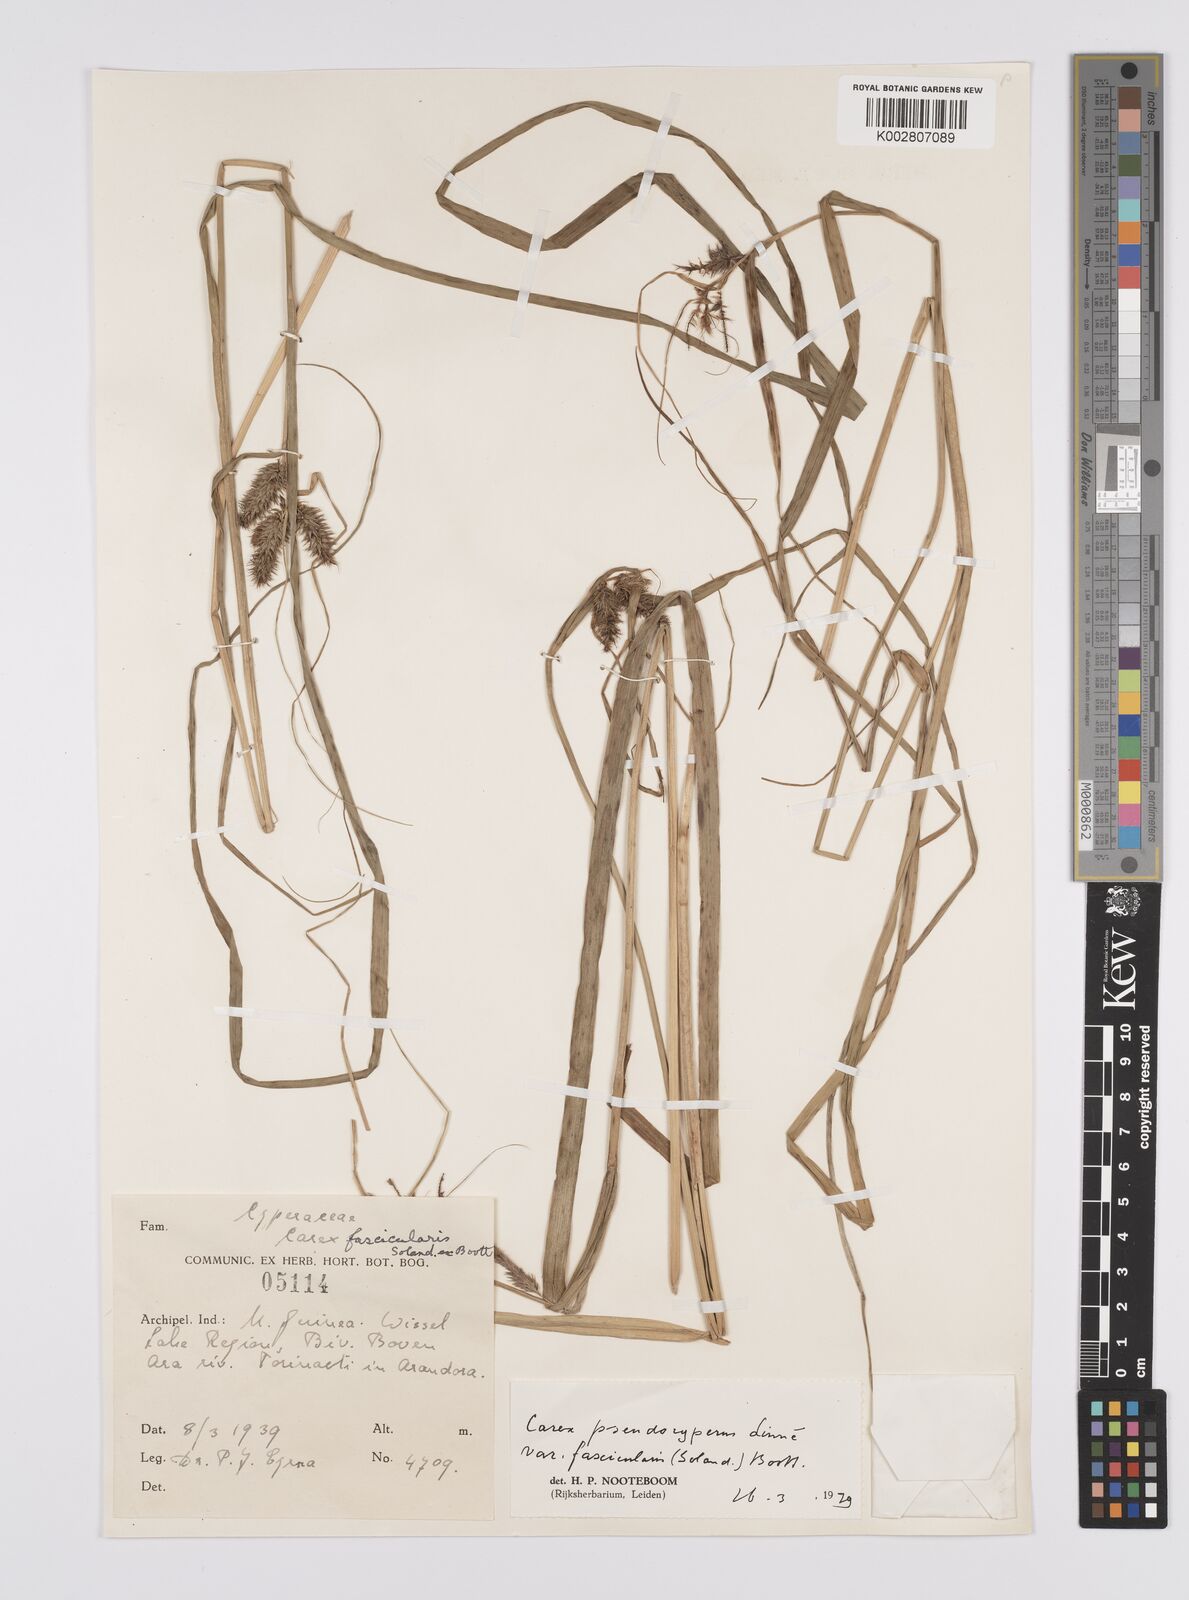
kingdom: Plantae
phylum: Tracheophyta
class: Liliopsida
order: Poales
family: Cyperaceae
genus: Carex
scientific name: Carex fascicularis
